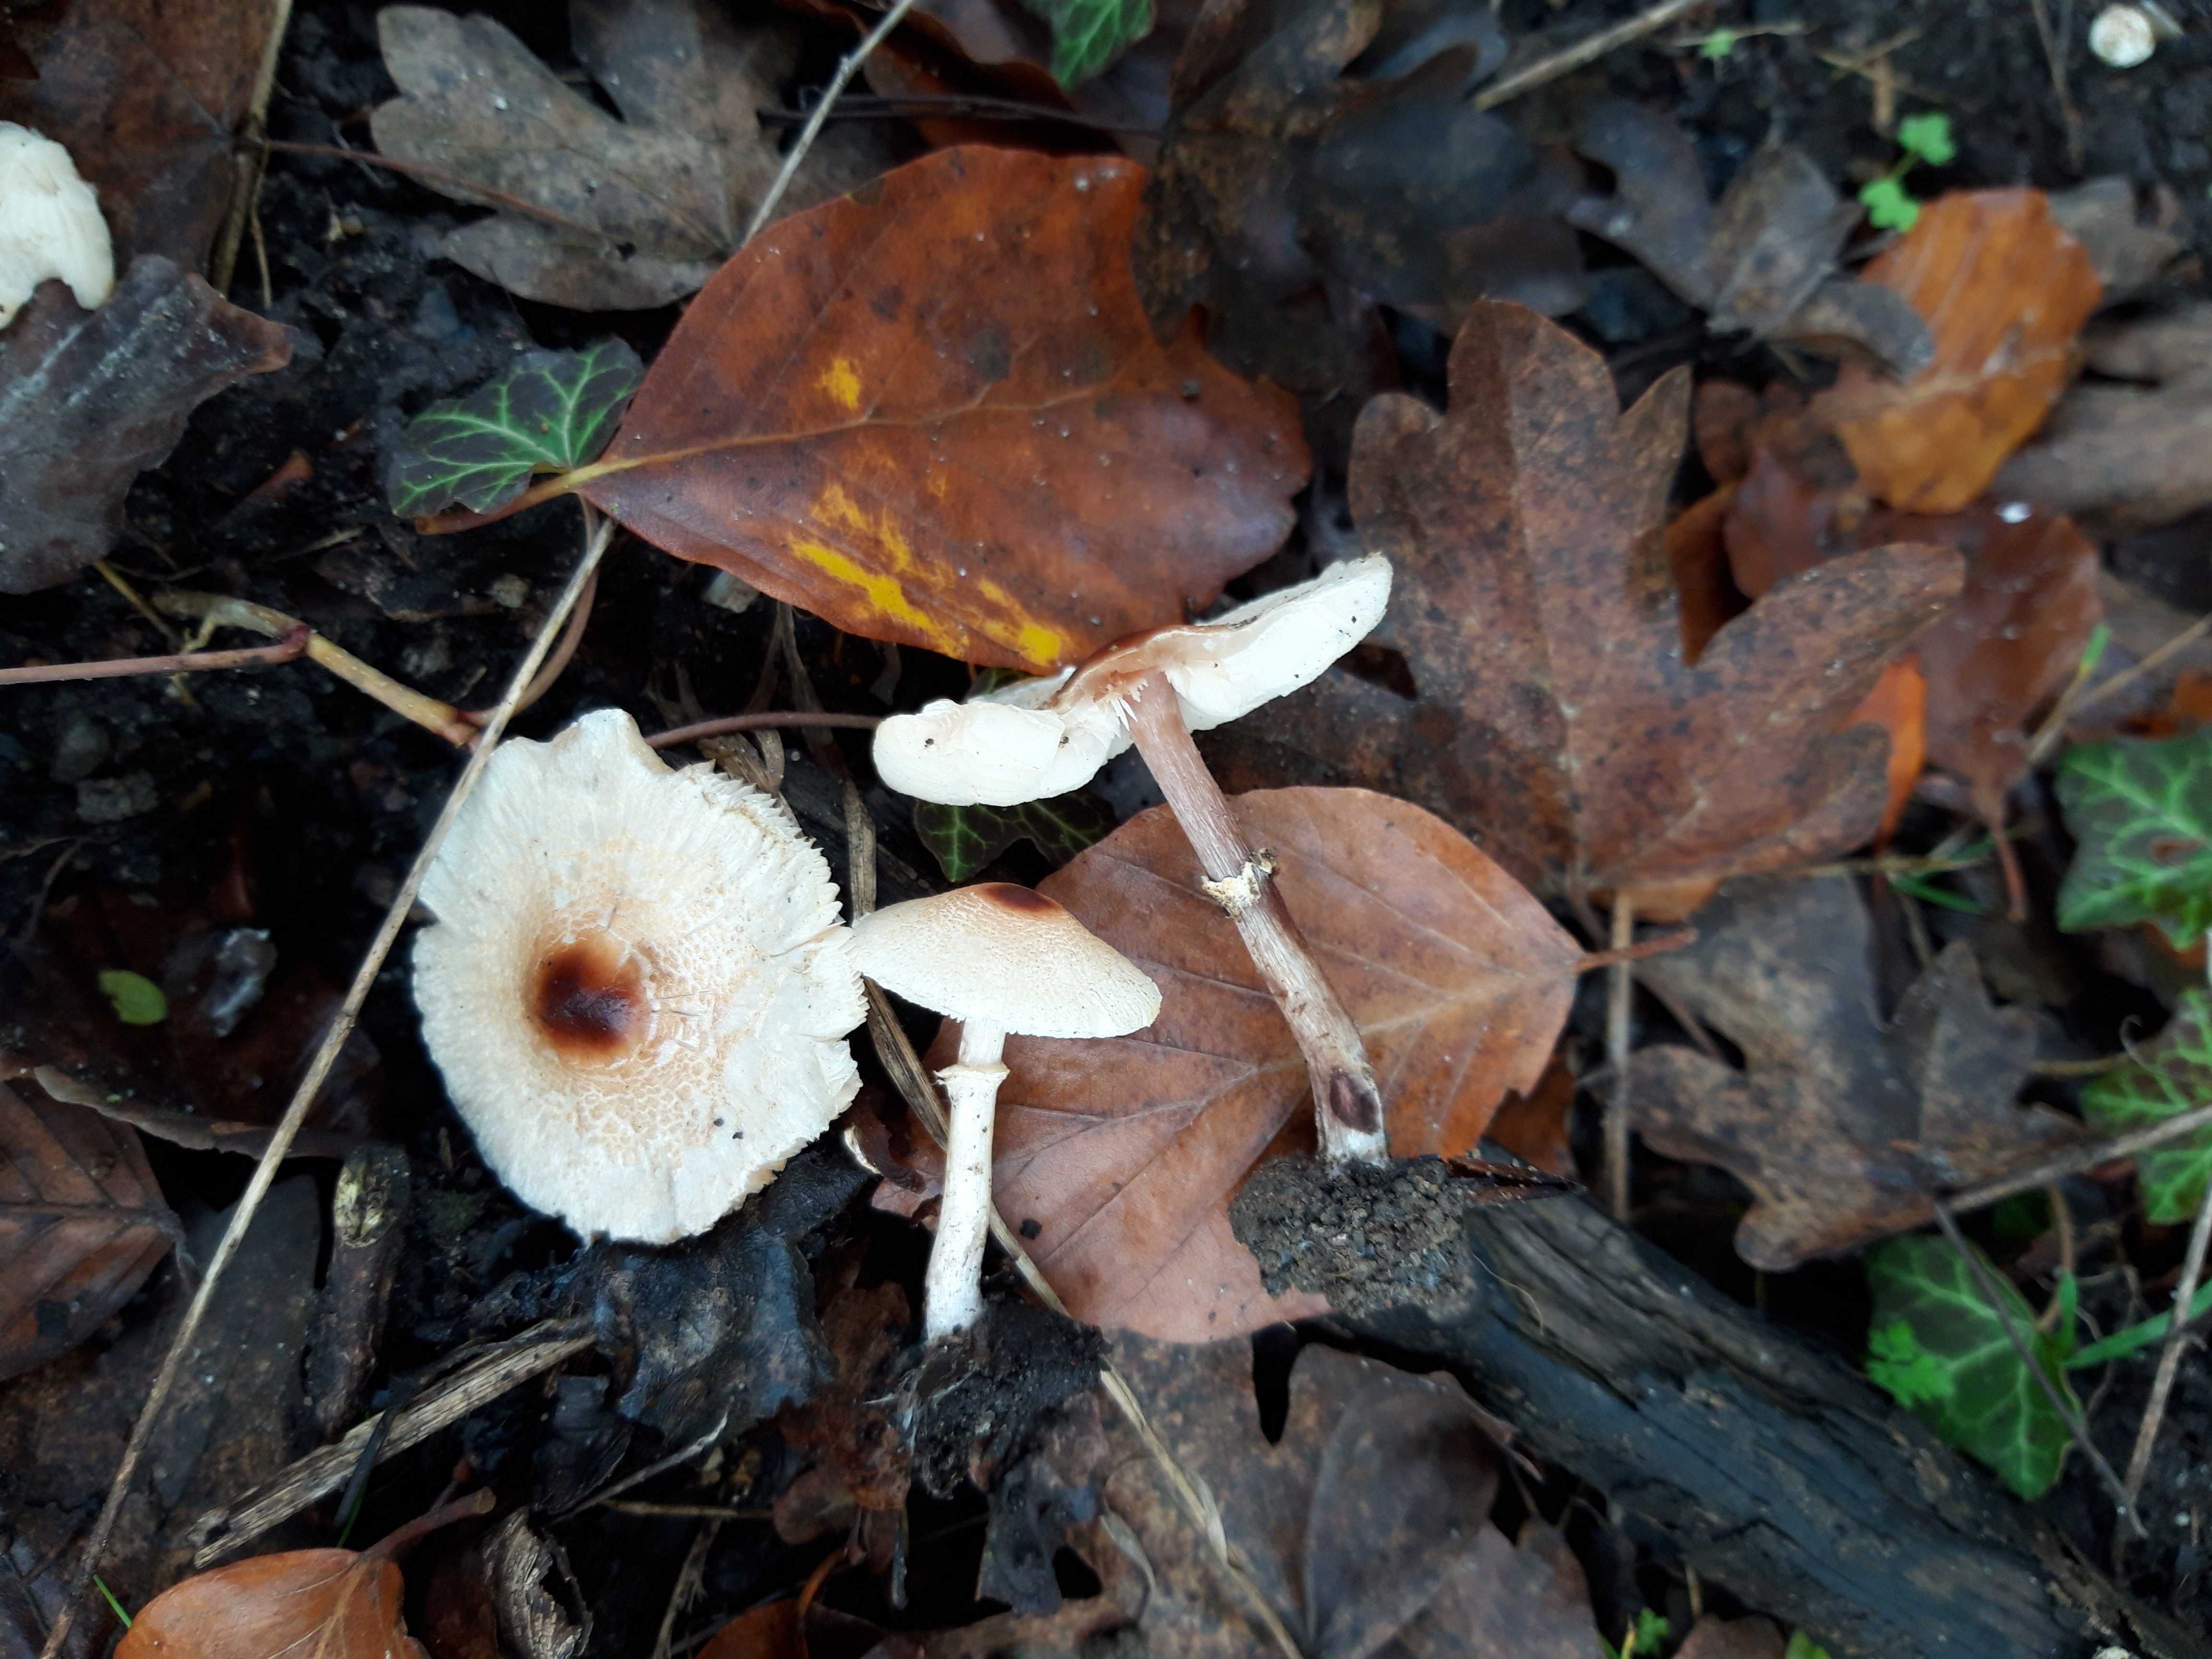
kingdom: Fungi
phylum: Basidiomycota
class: Agaricomycetes
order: Agaricales
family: Agaricaceae
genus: Lepiota
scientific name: Lepiota cristata
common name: stinkende parasolhat
